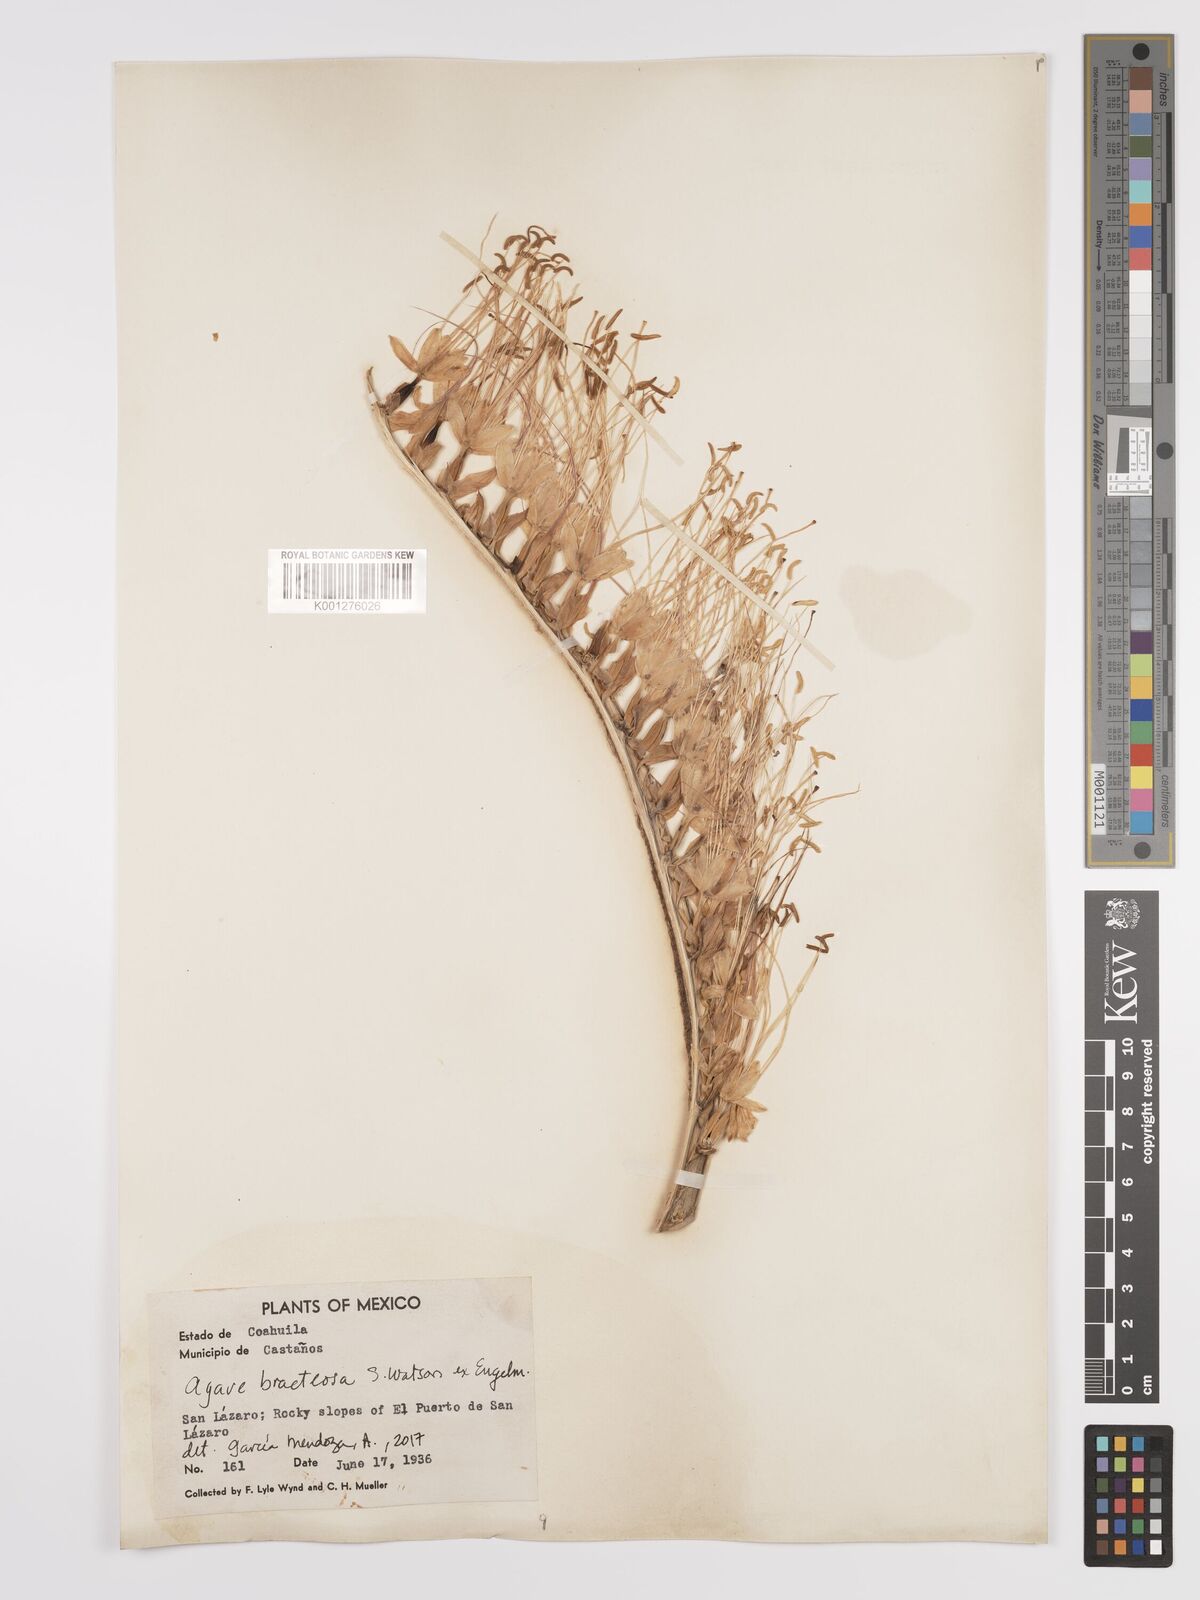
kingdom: Plantae
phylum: Tracheophyta
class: Liliopsida
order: Asparagales
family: Asparagaceae
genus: Agave
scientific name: Agave bracteosa
